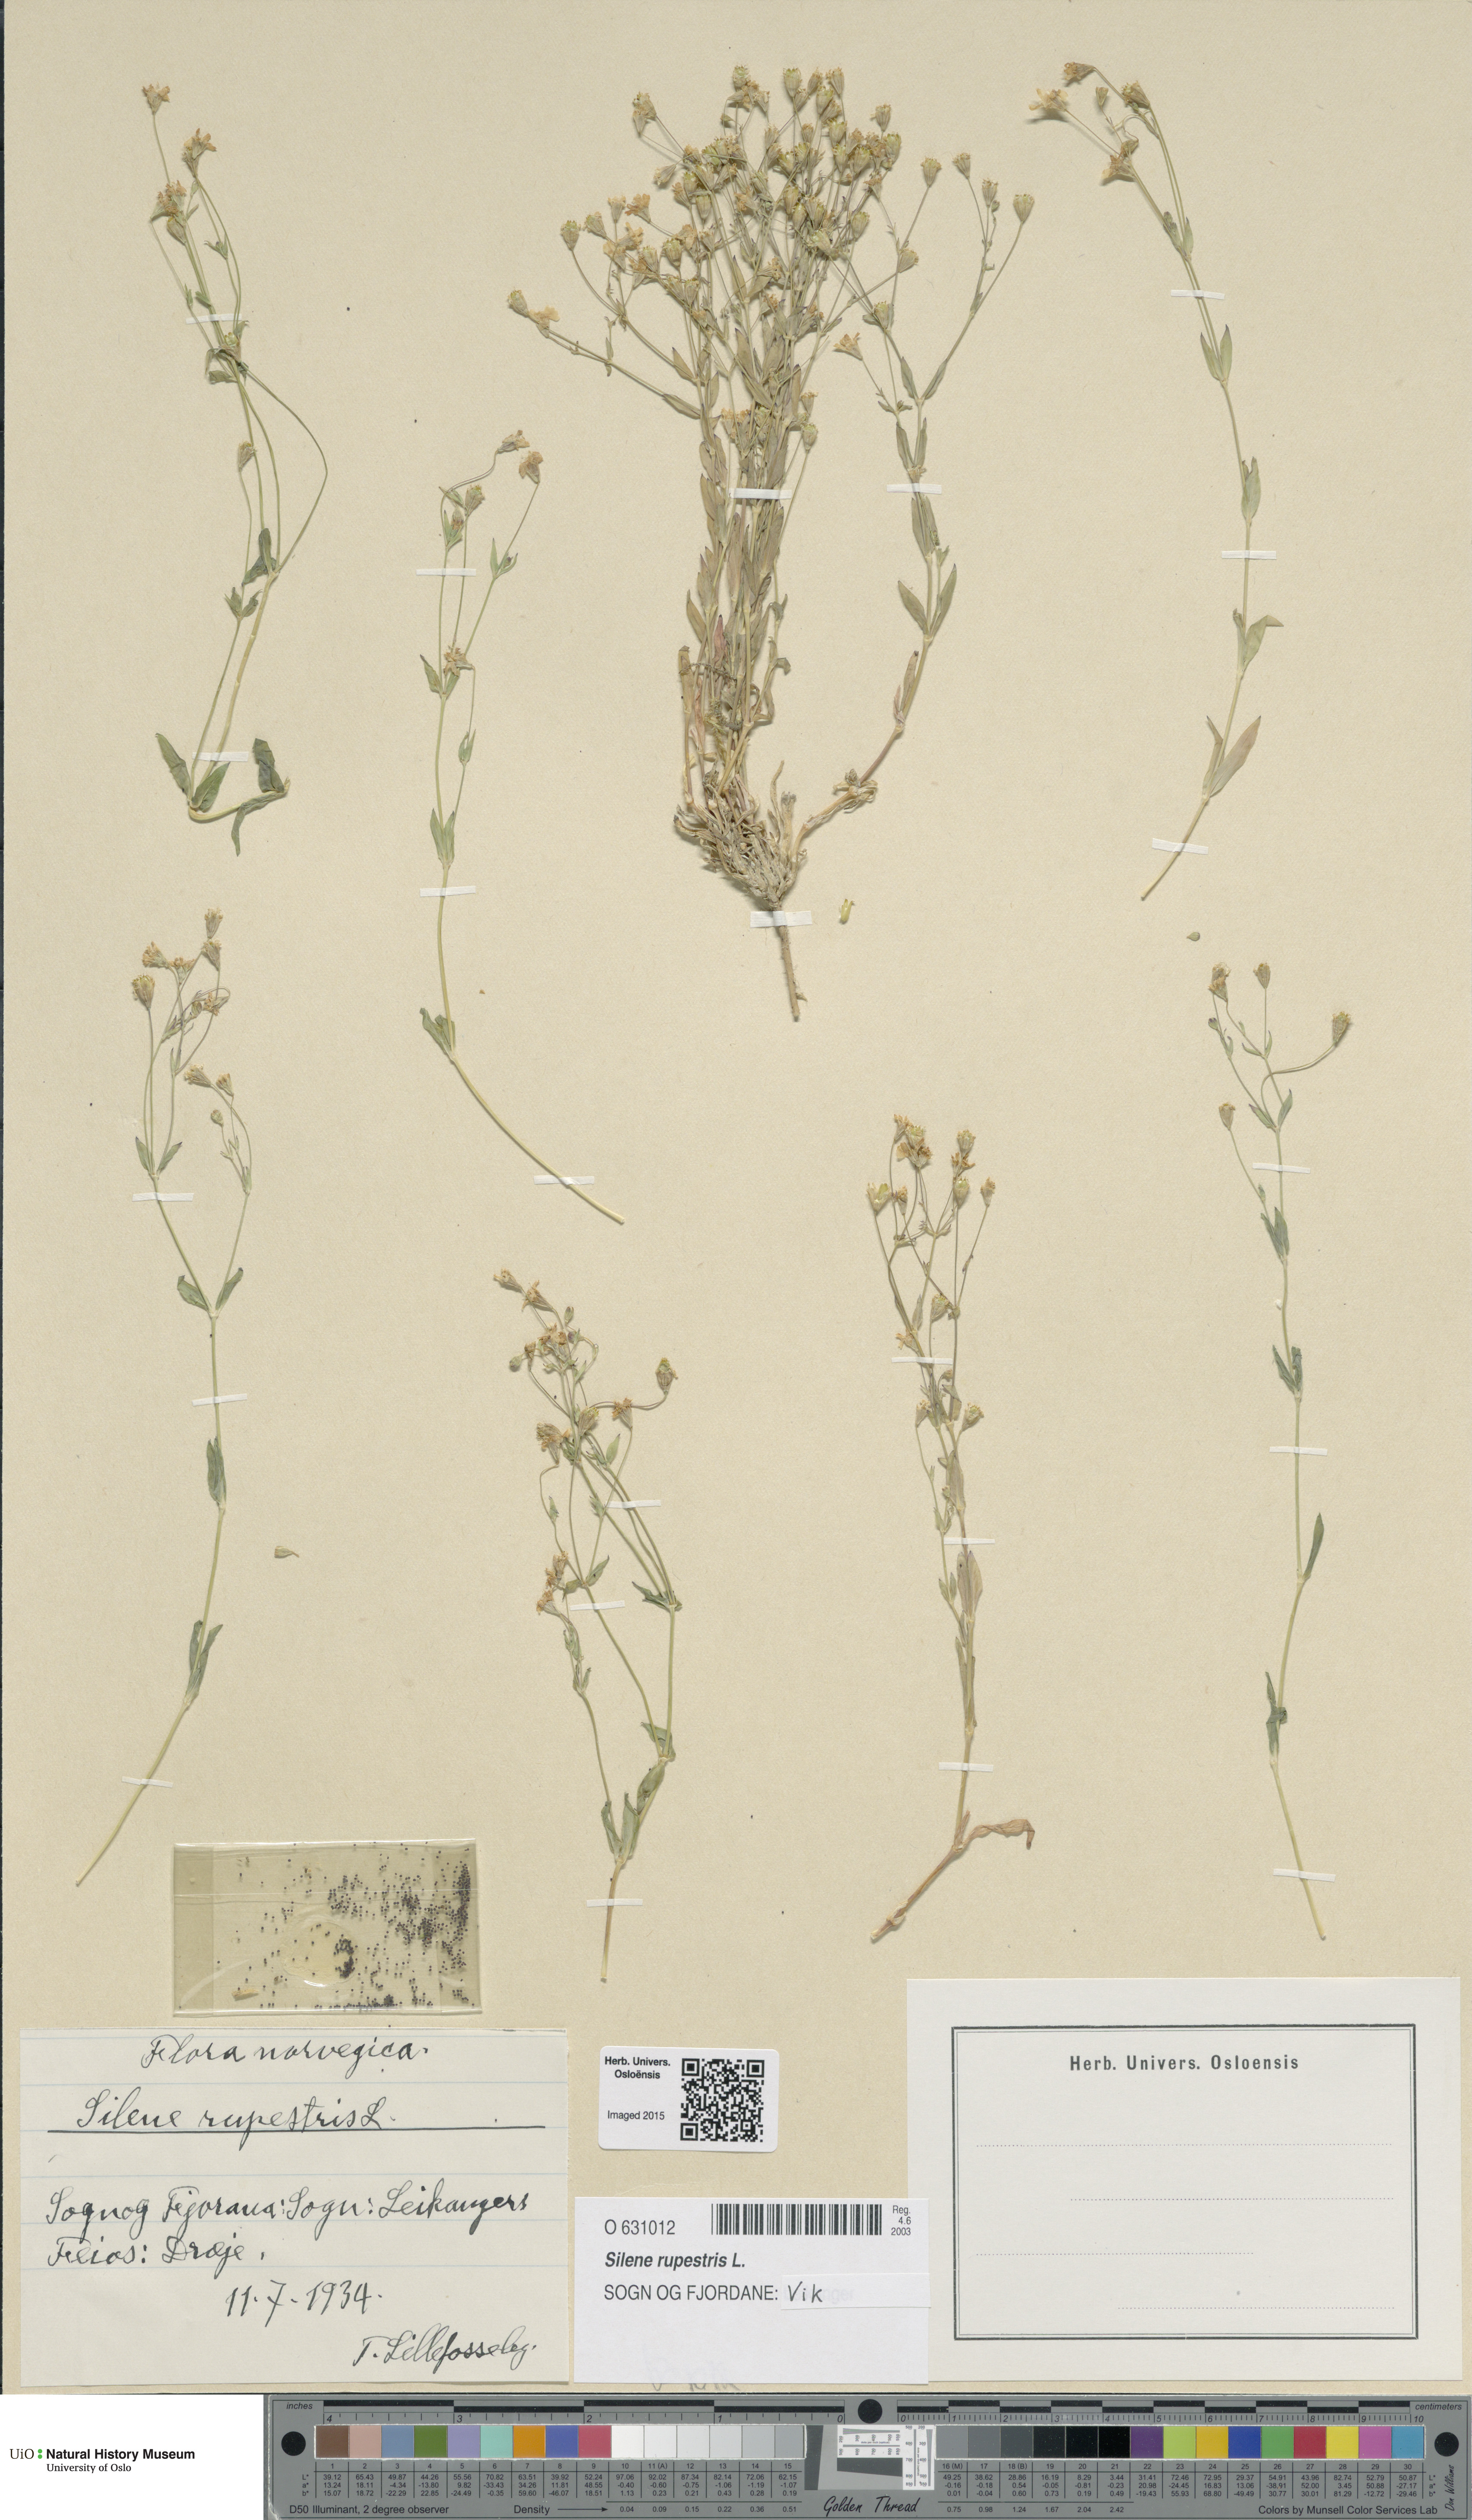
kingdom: Plantae
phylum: Tracheophyta
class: Magnoliopsida
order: Caryophyllales
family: Caryophyllaceae
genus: Atocion
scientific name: Atocion rupestre
